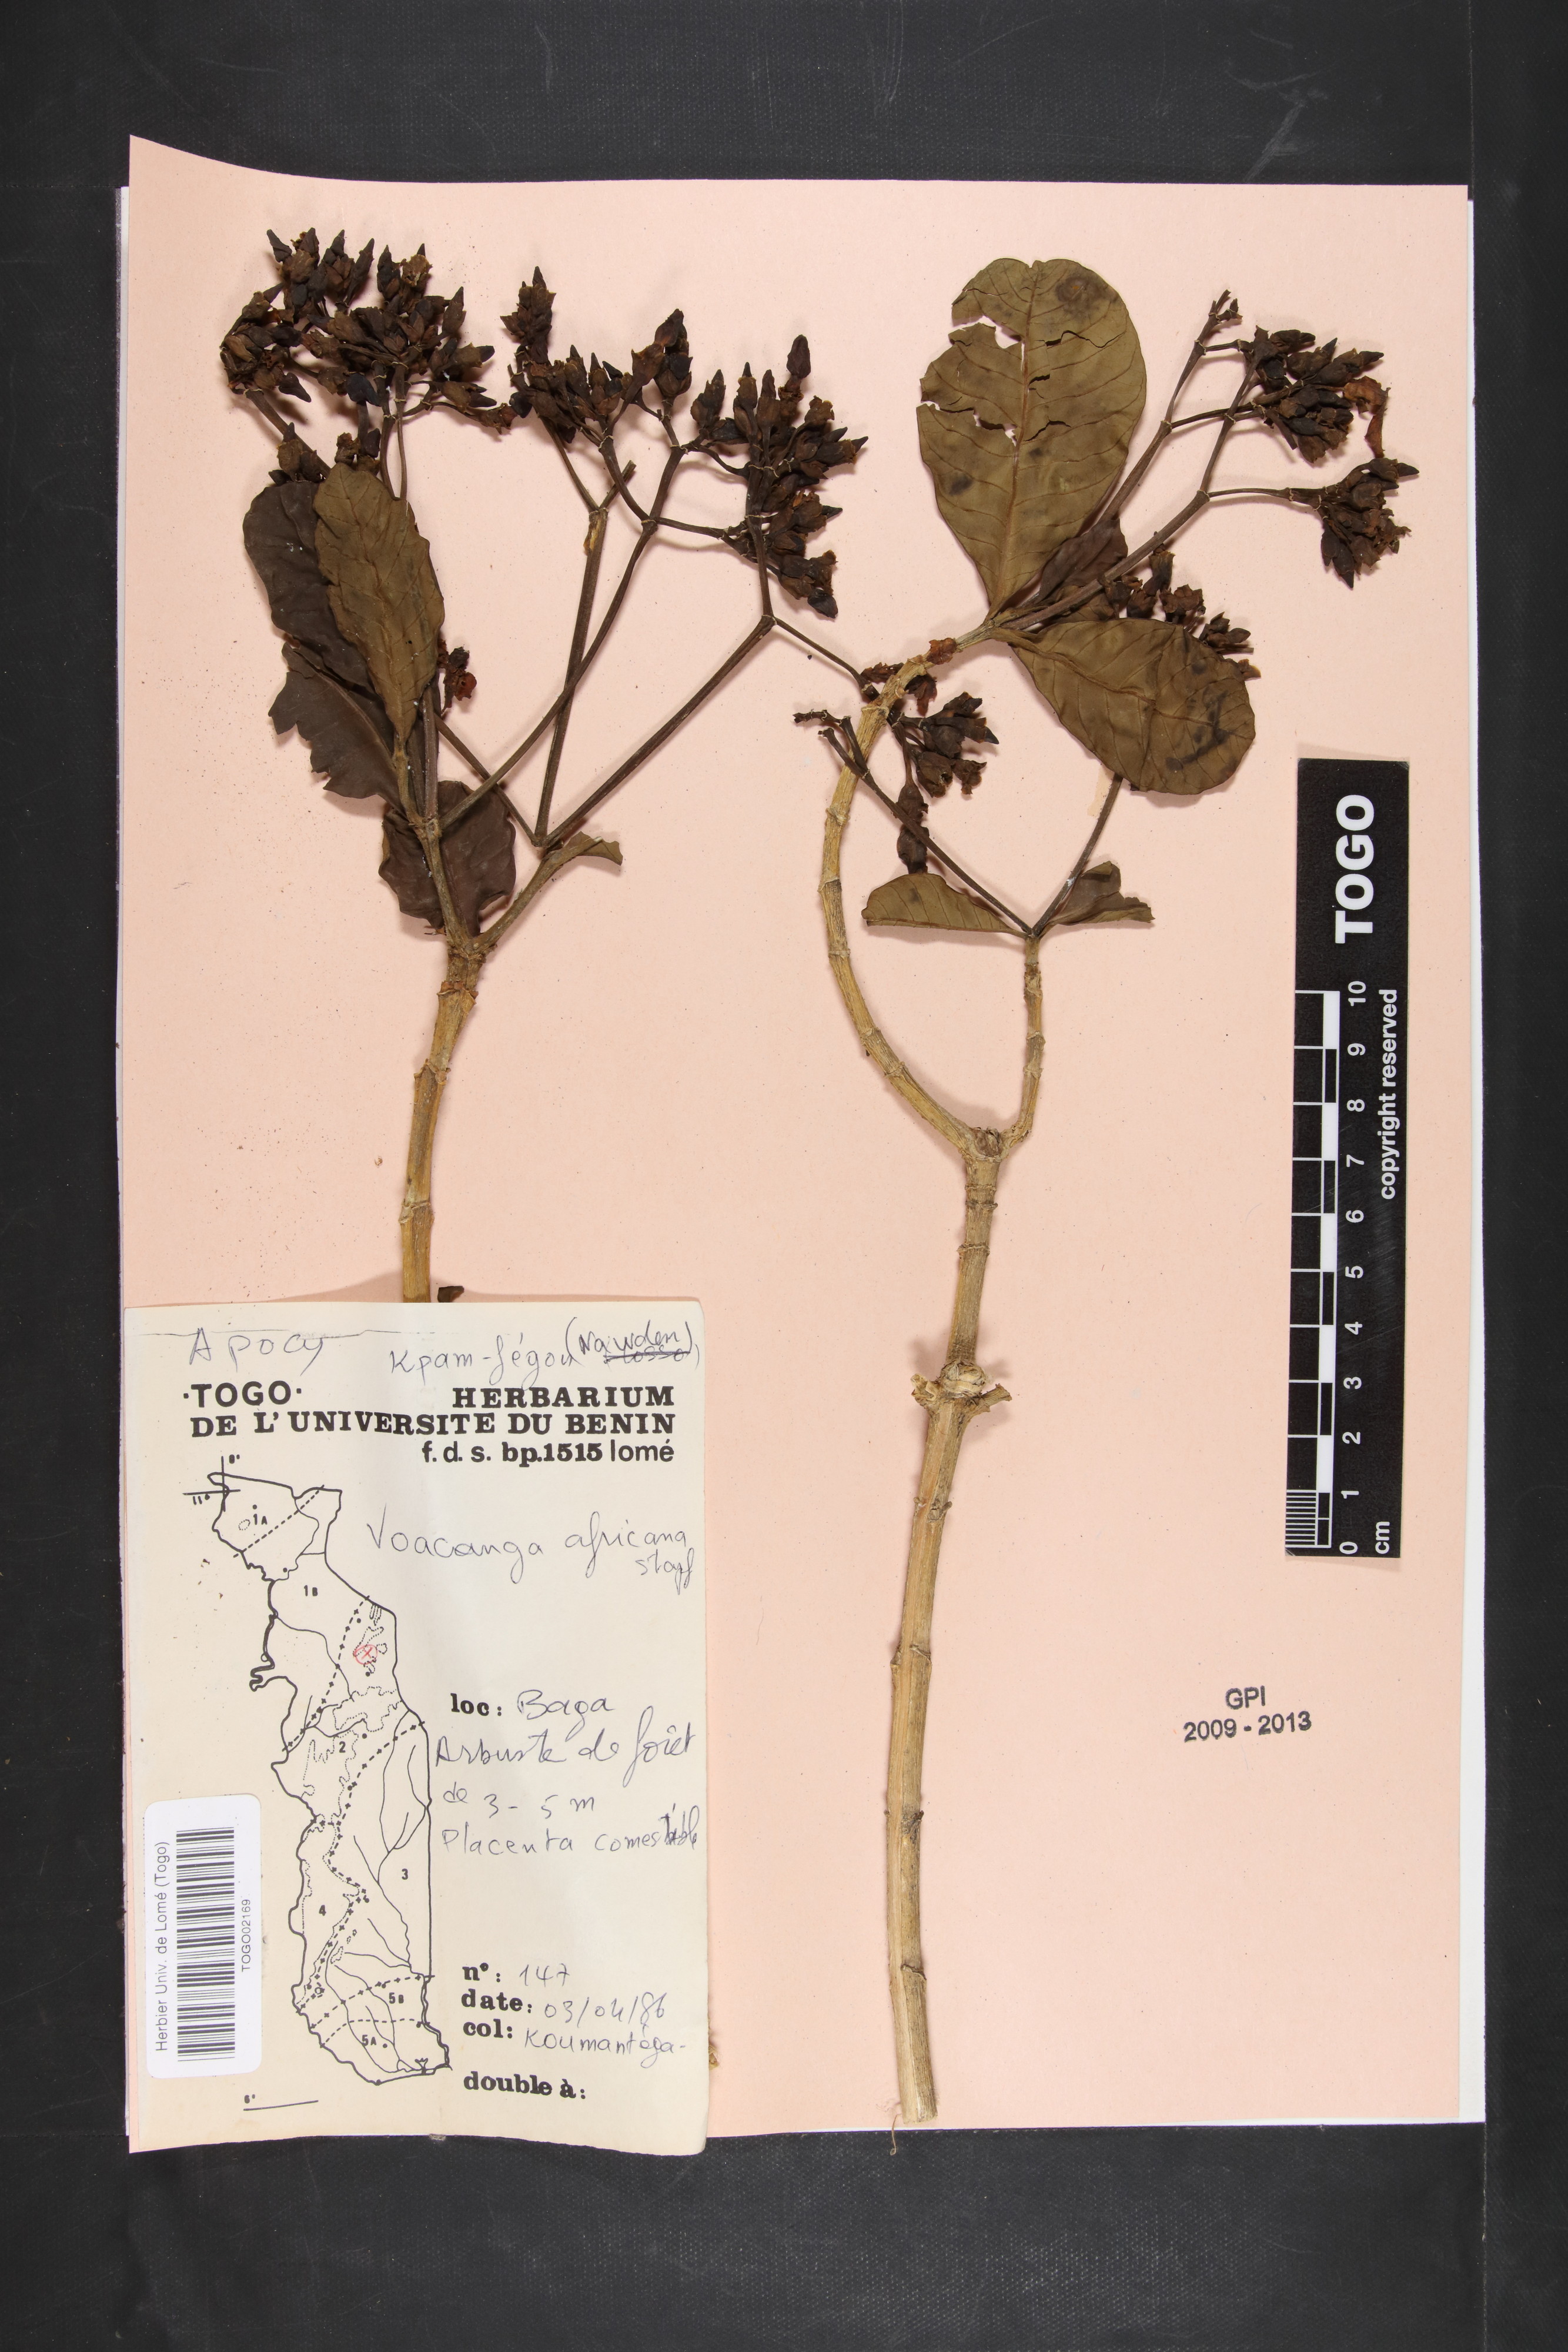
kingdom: Plantae
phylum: Tracheophyta
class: Magnoliopsida
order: Gentianales
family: Apocynaceae
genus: Voacanga
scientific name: Voacanga africana
